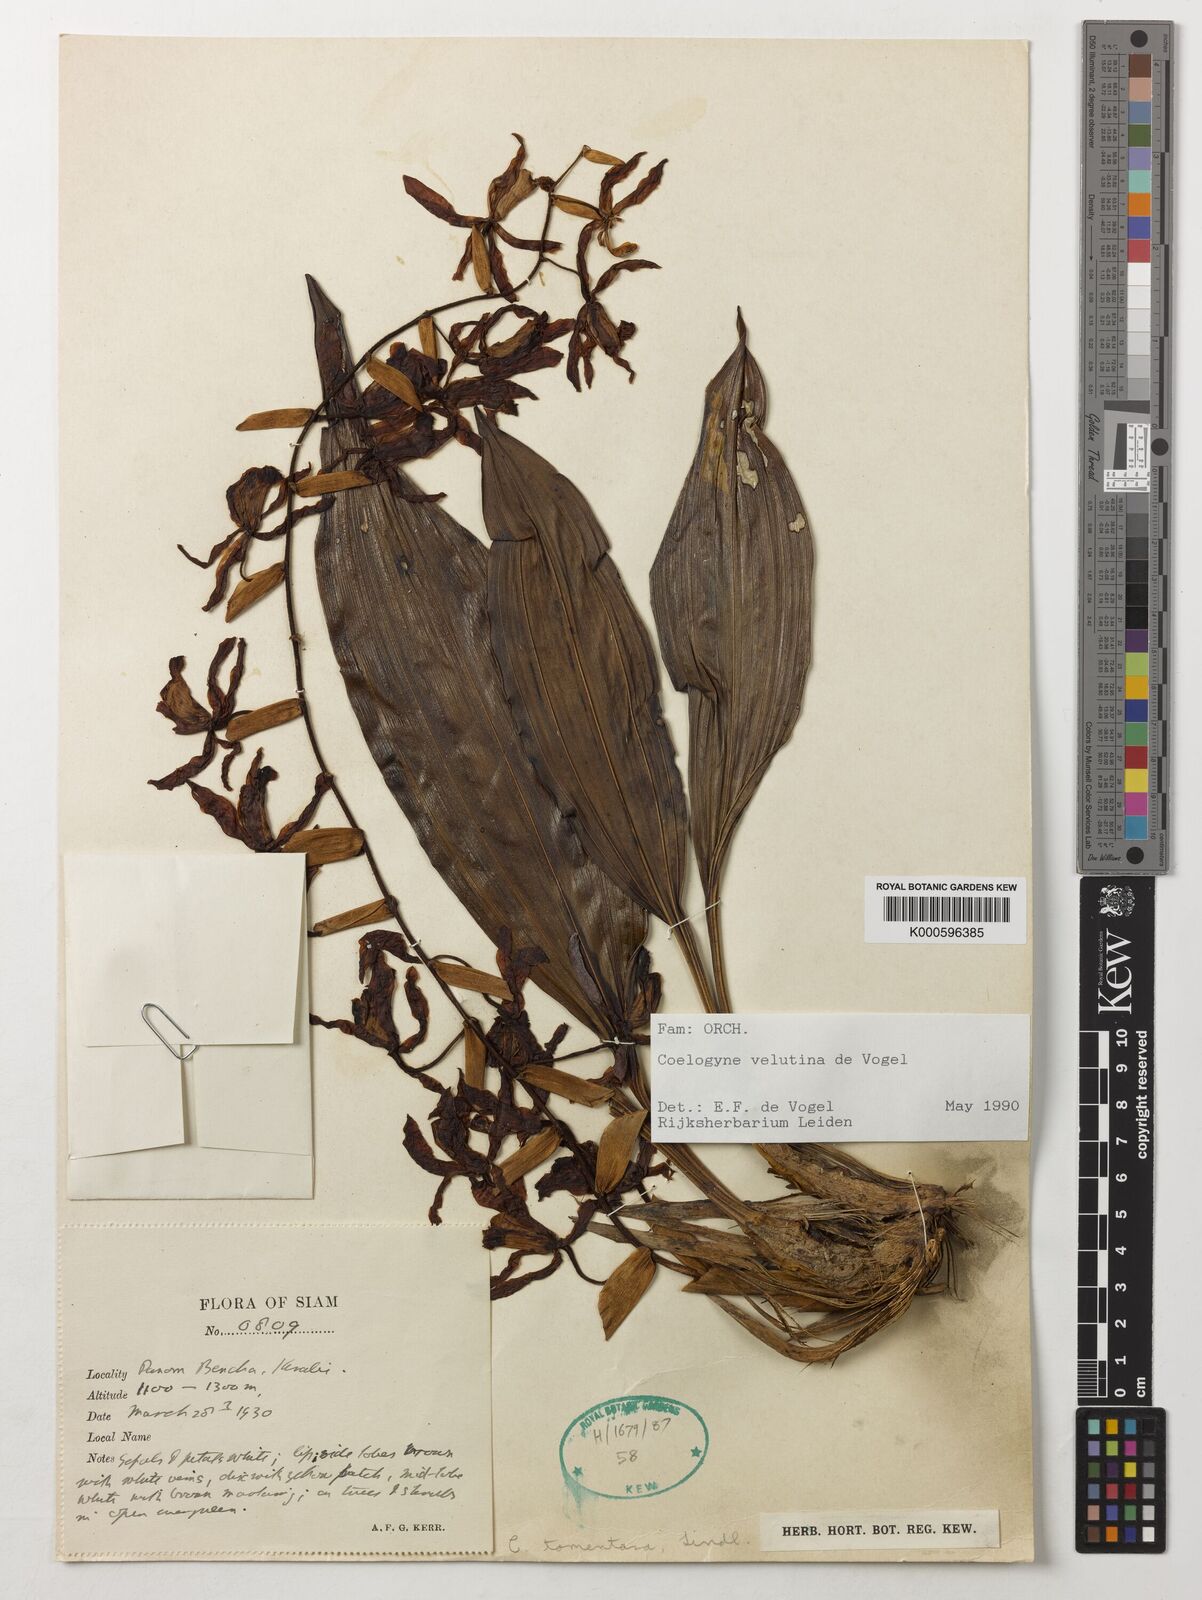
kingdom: Plantae
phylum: Tracheophyta
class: Liliopsida
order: Asparagales
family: Orchidaceae
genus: Coelogyne
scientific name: Coelogyne velutina
